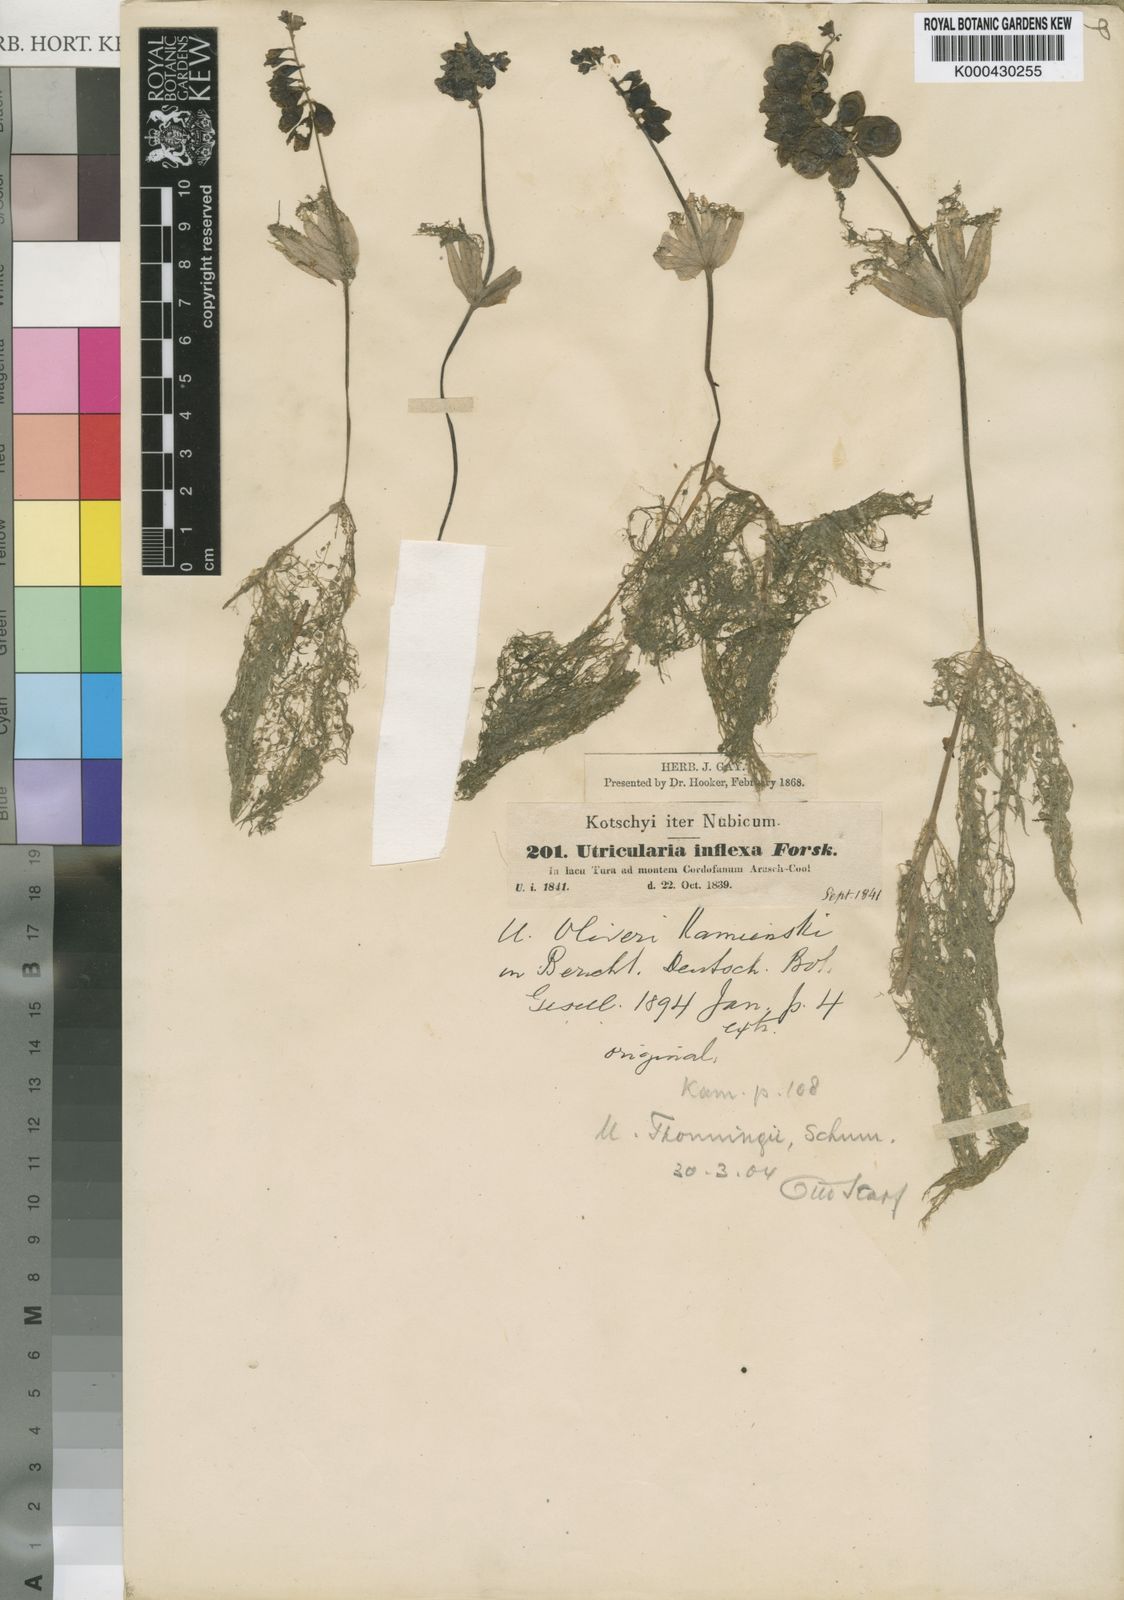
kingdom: Plantae
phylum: Tracheophyta
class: Magnoliopsida
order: Lamiales
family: Lentibulariaceae
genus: Utricularia
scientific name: Utricularia reflexa
